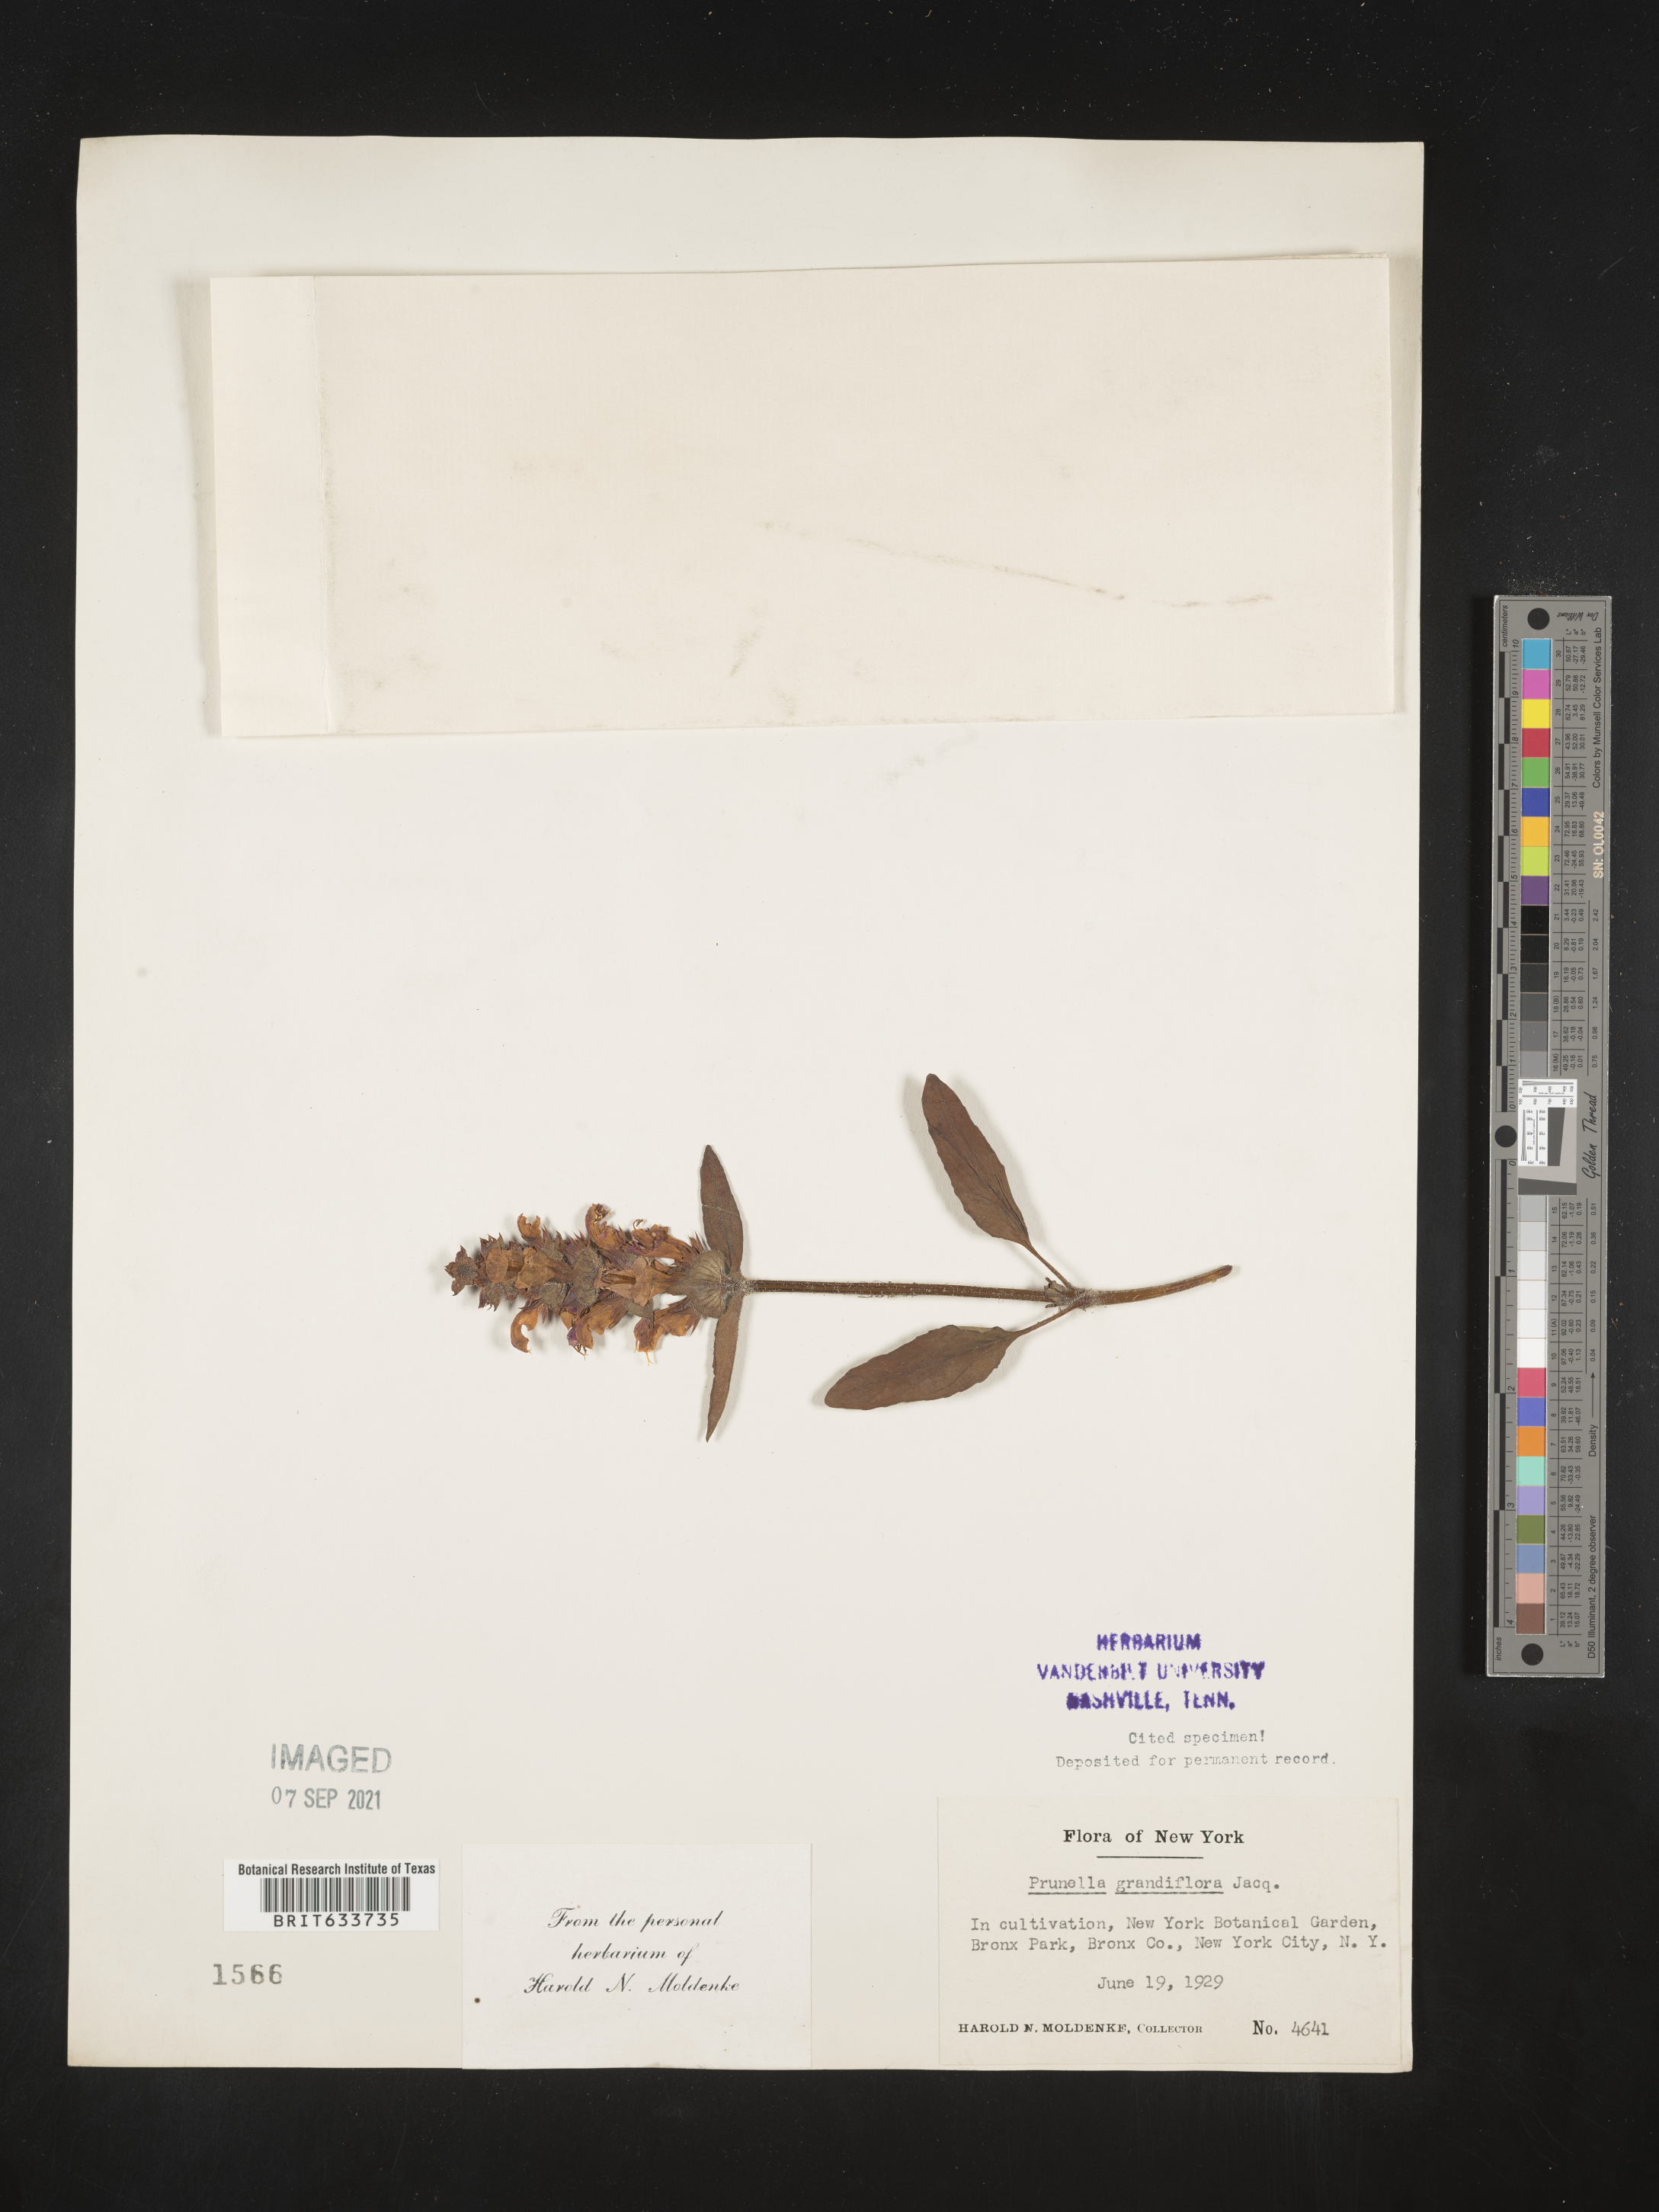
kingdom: Plantae
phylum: Tracheophyta
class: Magnoliopsida
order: Lamiales
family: Lamiaceae
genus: Prunella
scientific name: Prunella
